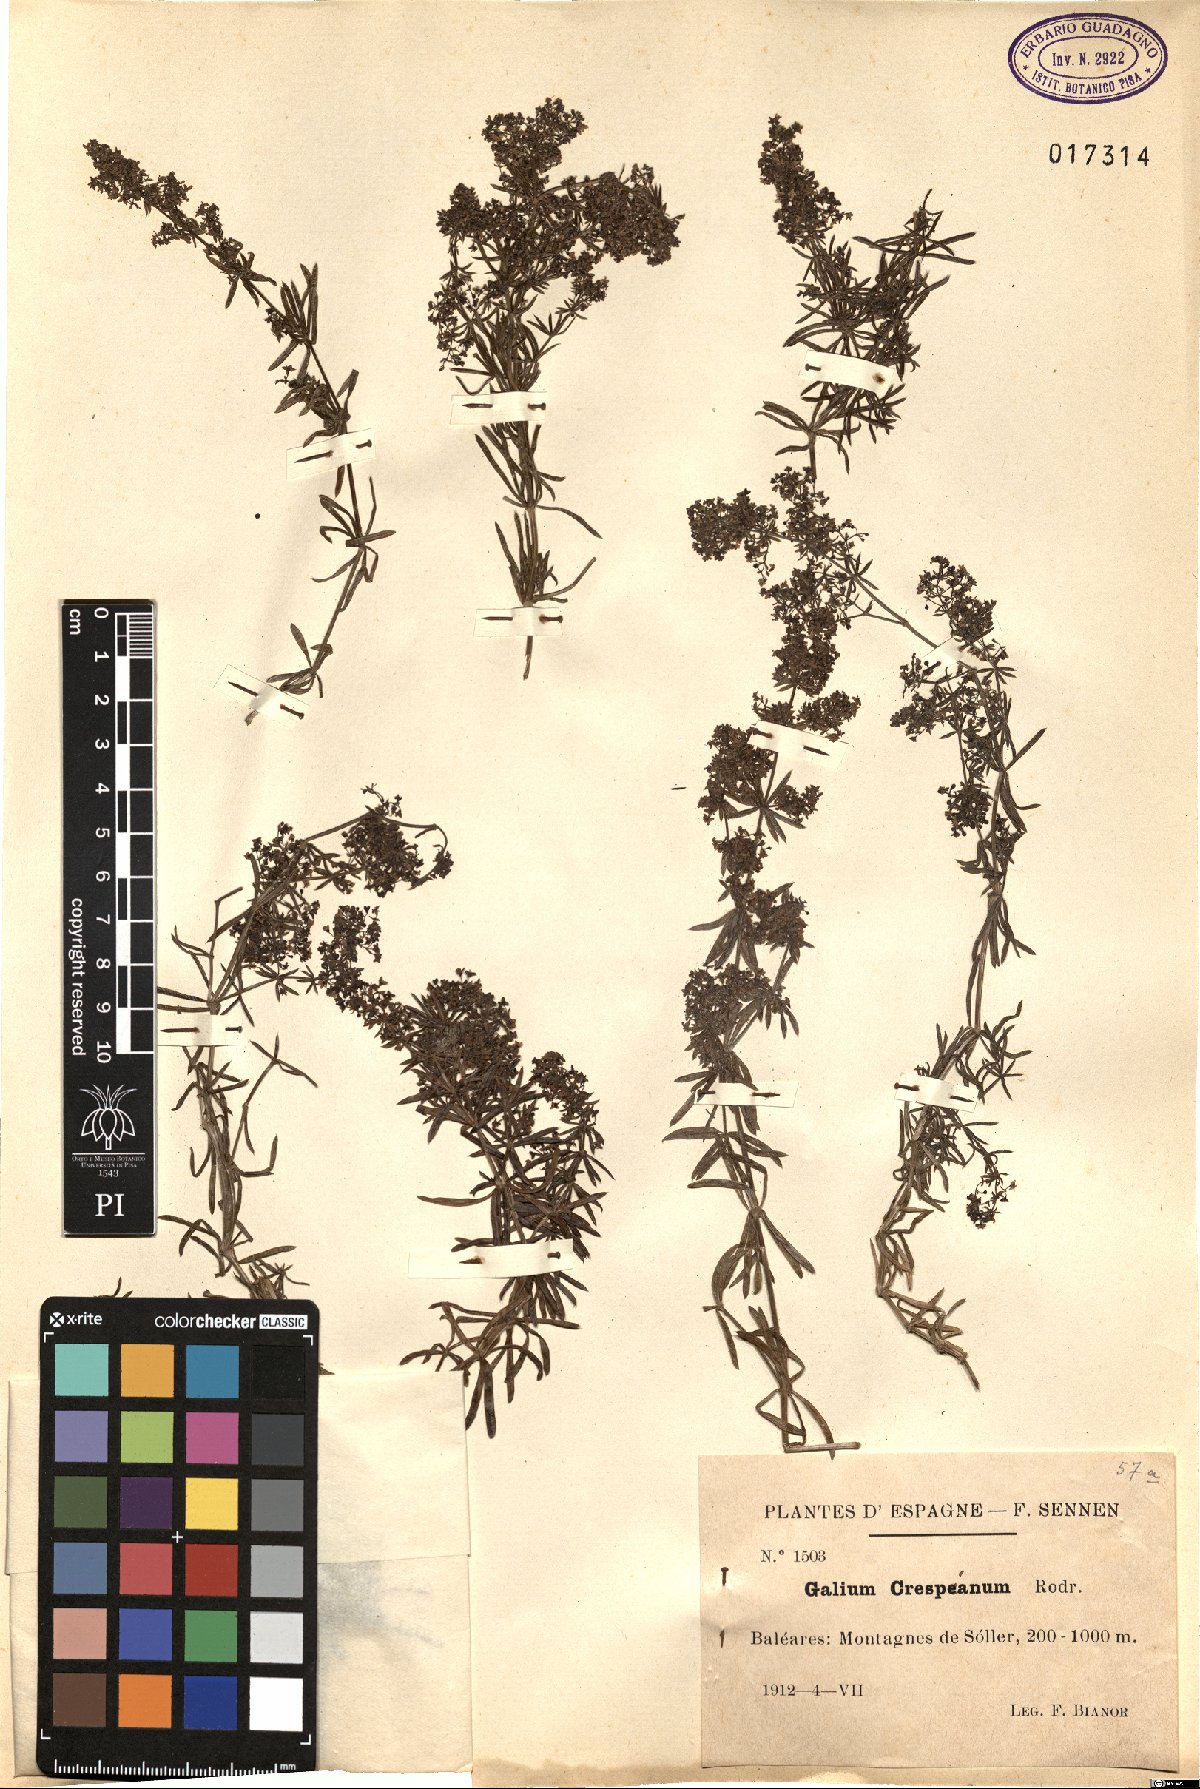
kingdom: Plantae
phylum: Tracheophyta
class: Magnoliopsida
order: Gentianales
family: Rubiaceae
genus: Galium
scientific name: Galium crespianum
